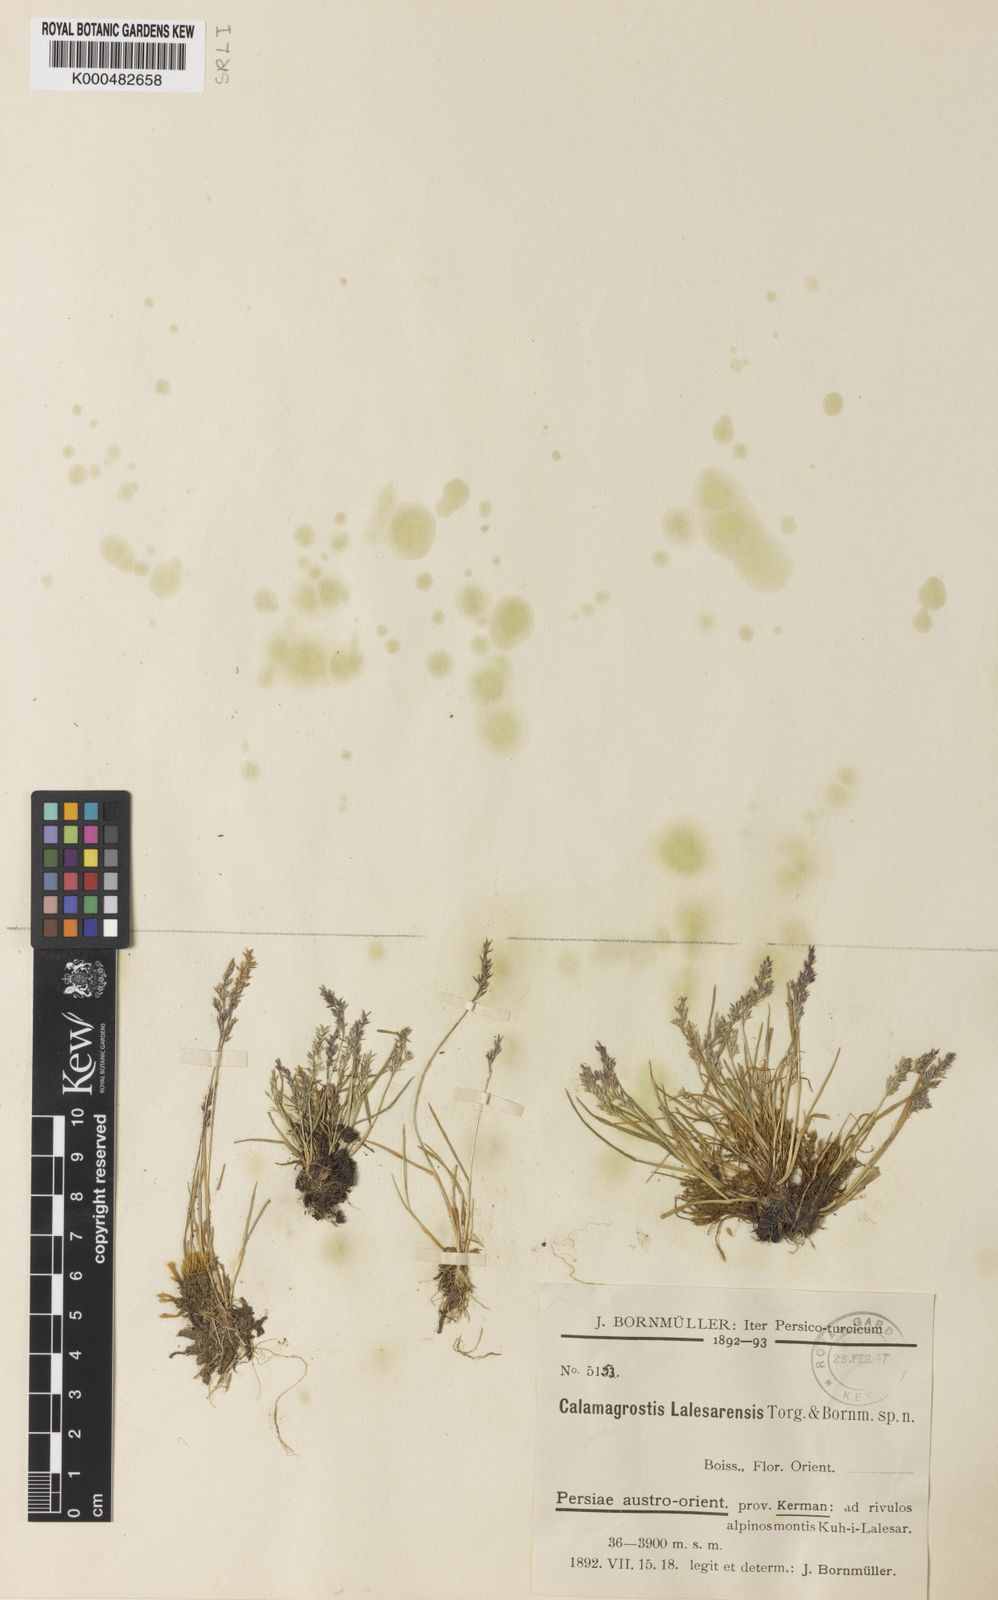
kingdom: Plantae
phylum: Tracheophyta
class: Liliopsida
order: Poales
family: Poaceae
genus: Agrostis
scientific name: Agrostis olympica
